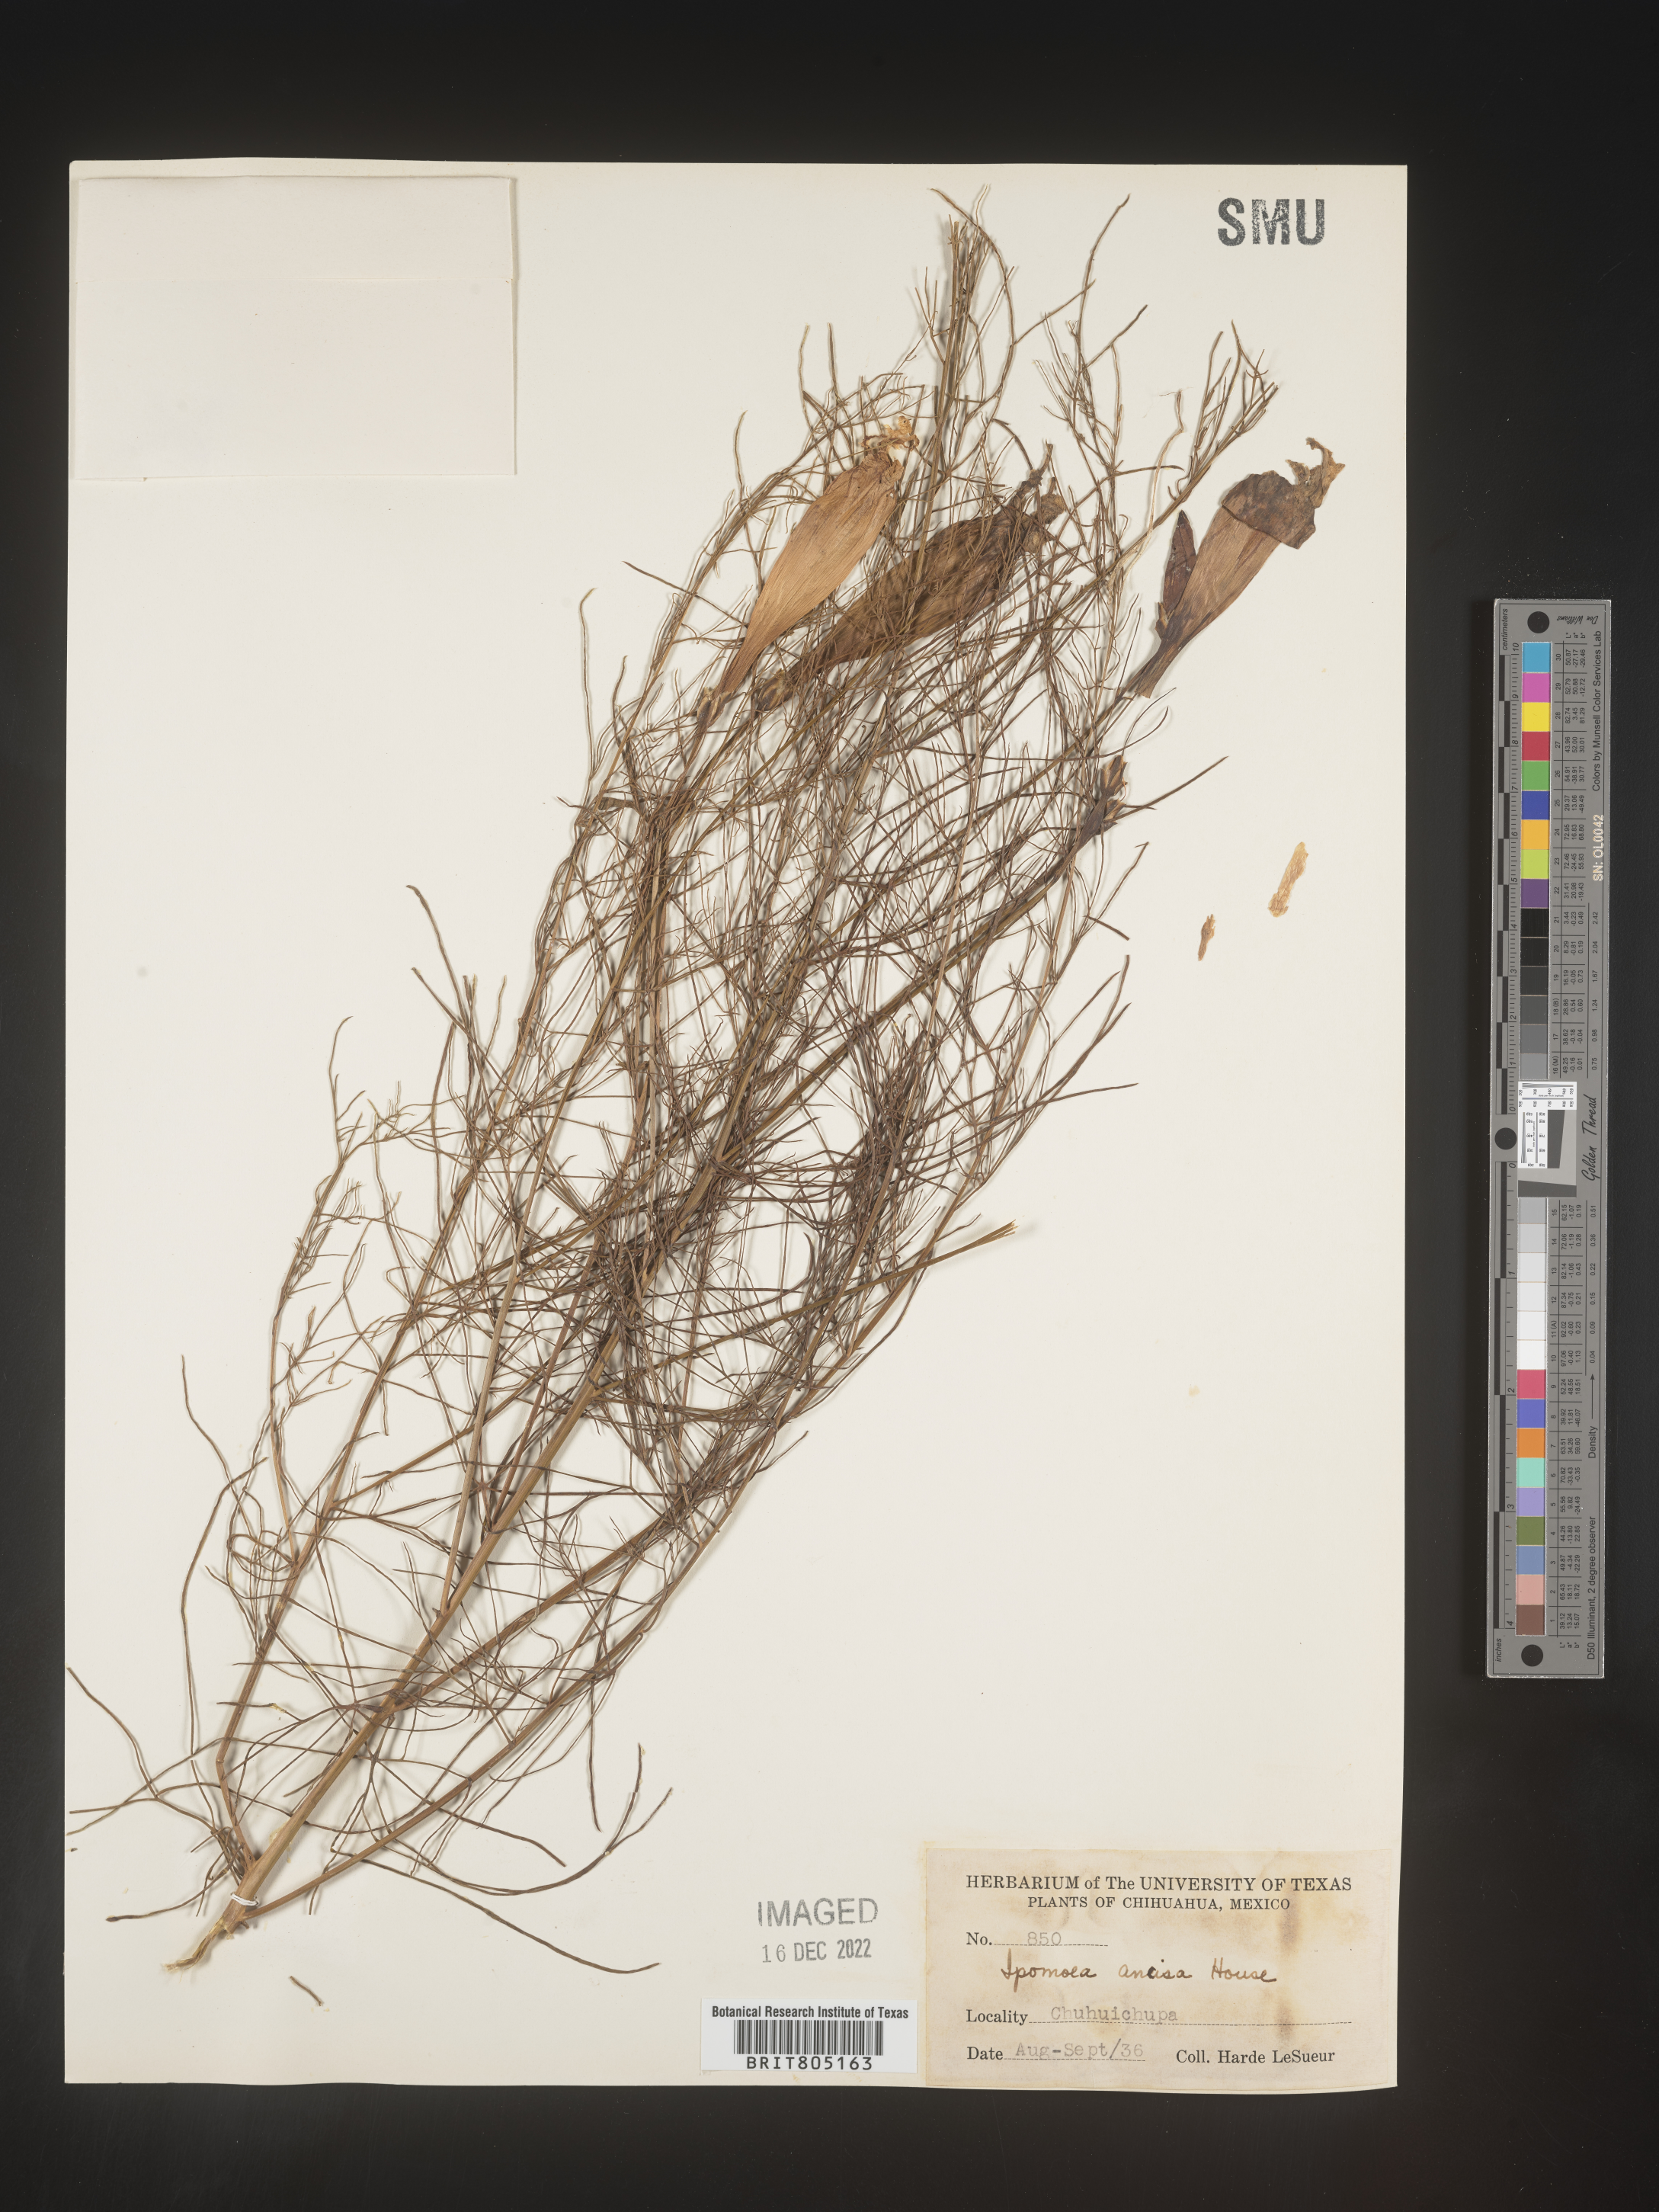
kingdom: Plantae
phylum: Tracheophyta
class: Magnoliopsida
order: Solanales
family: Convolvulaceae
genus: Ipomoea
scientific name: Ipomoea
